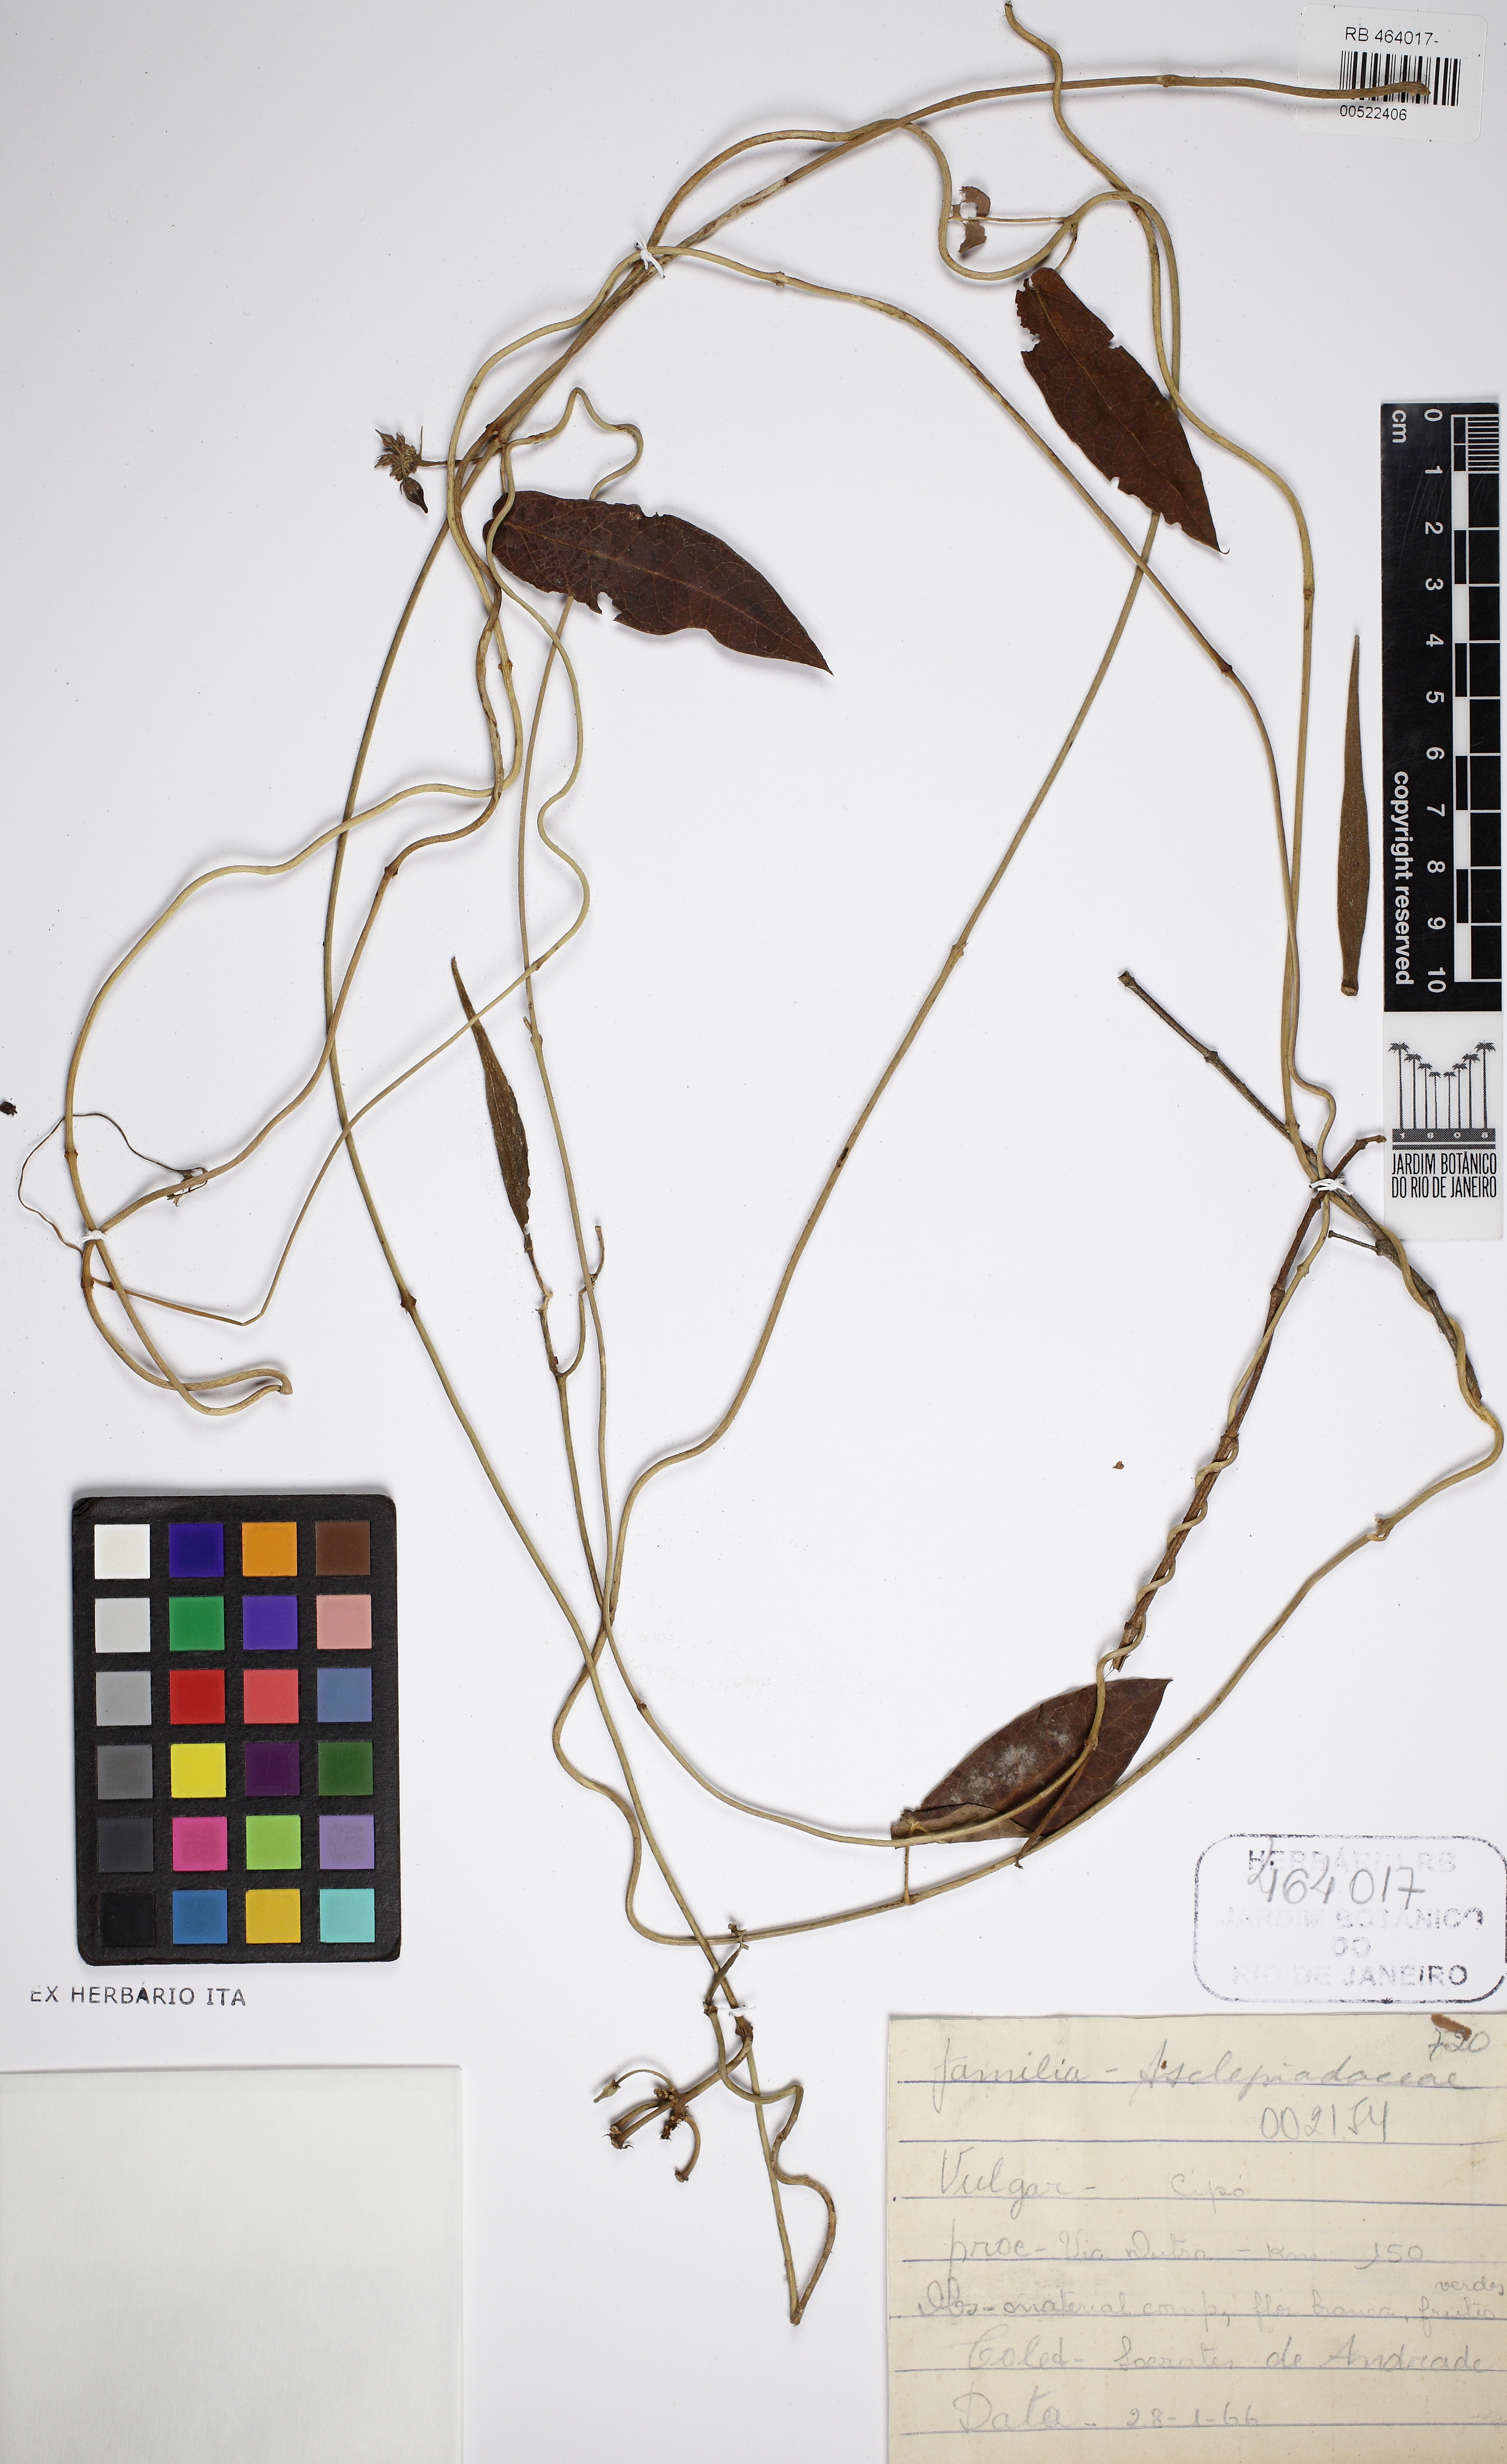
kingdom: Plantae
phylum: Tracheophyta
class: Magnoliopsida
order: Gentianales
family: Apocynaceae
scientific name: Apocynaceae
